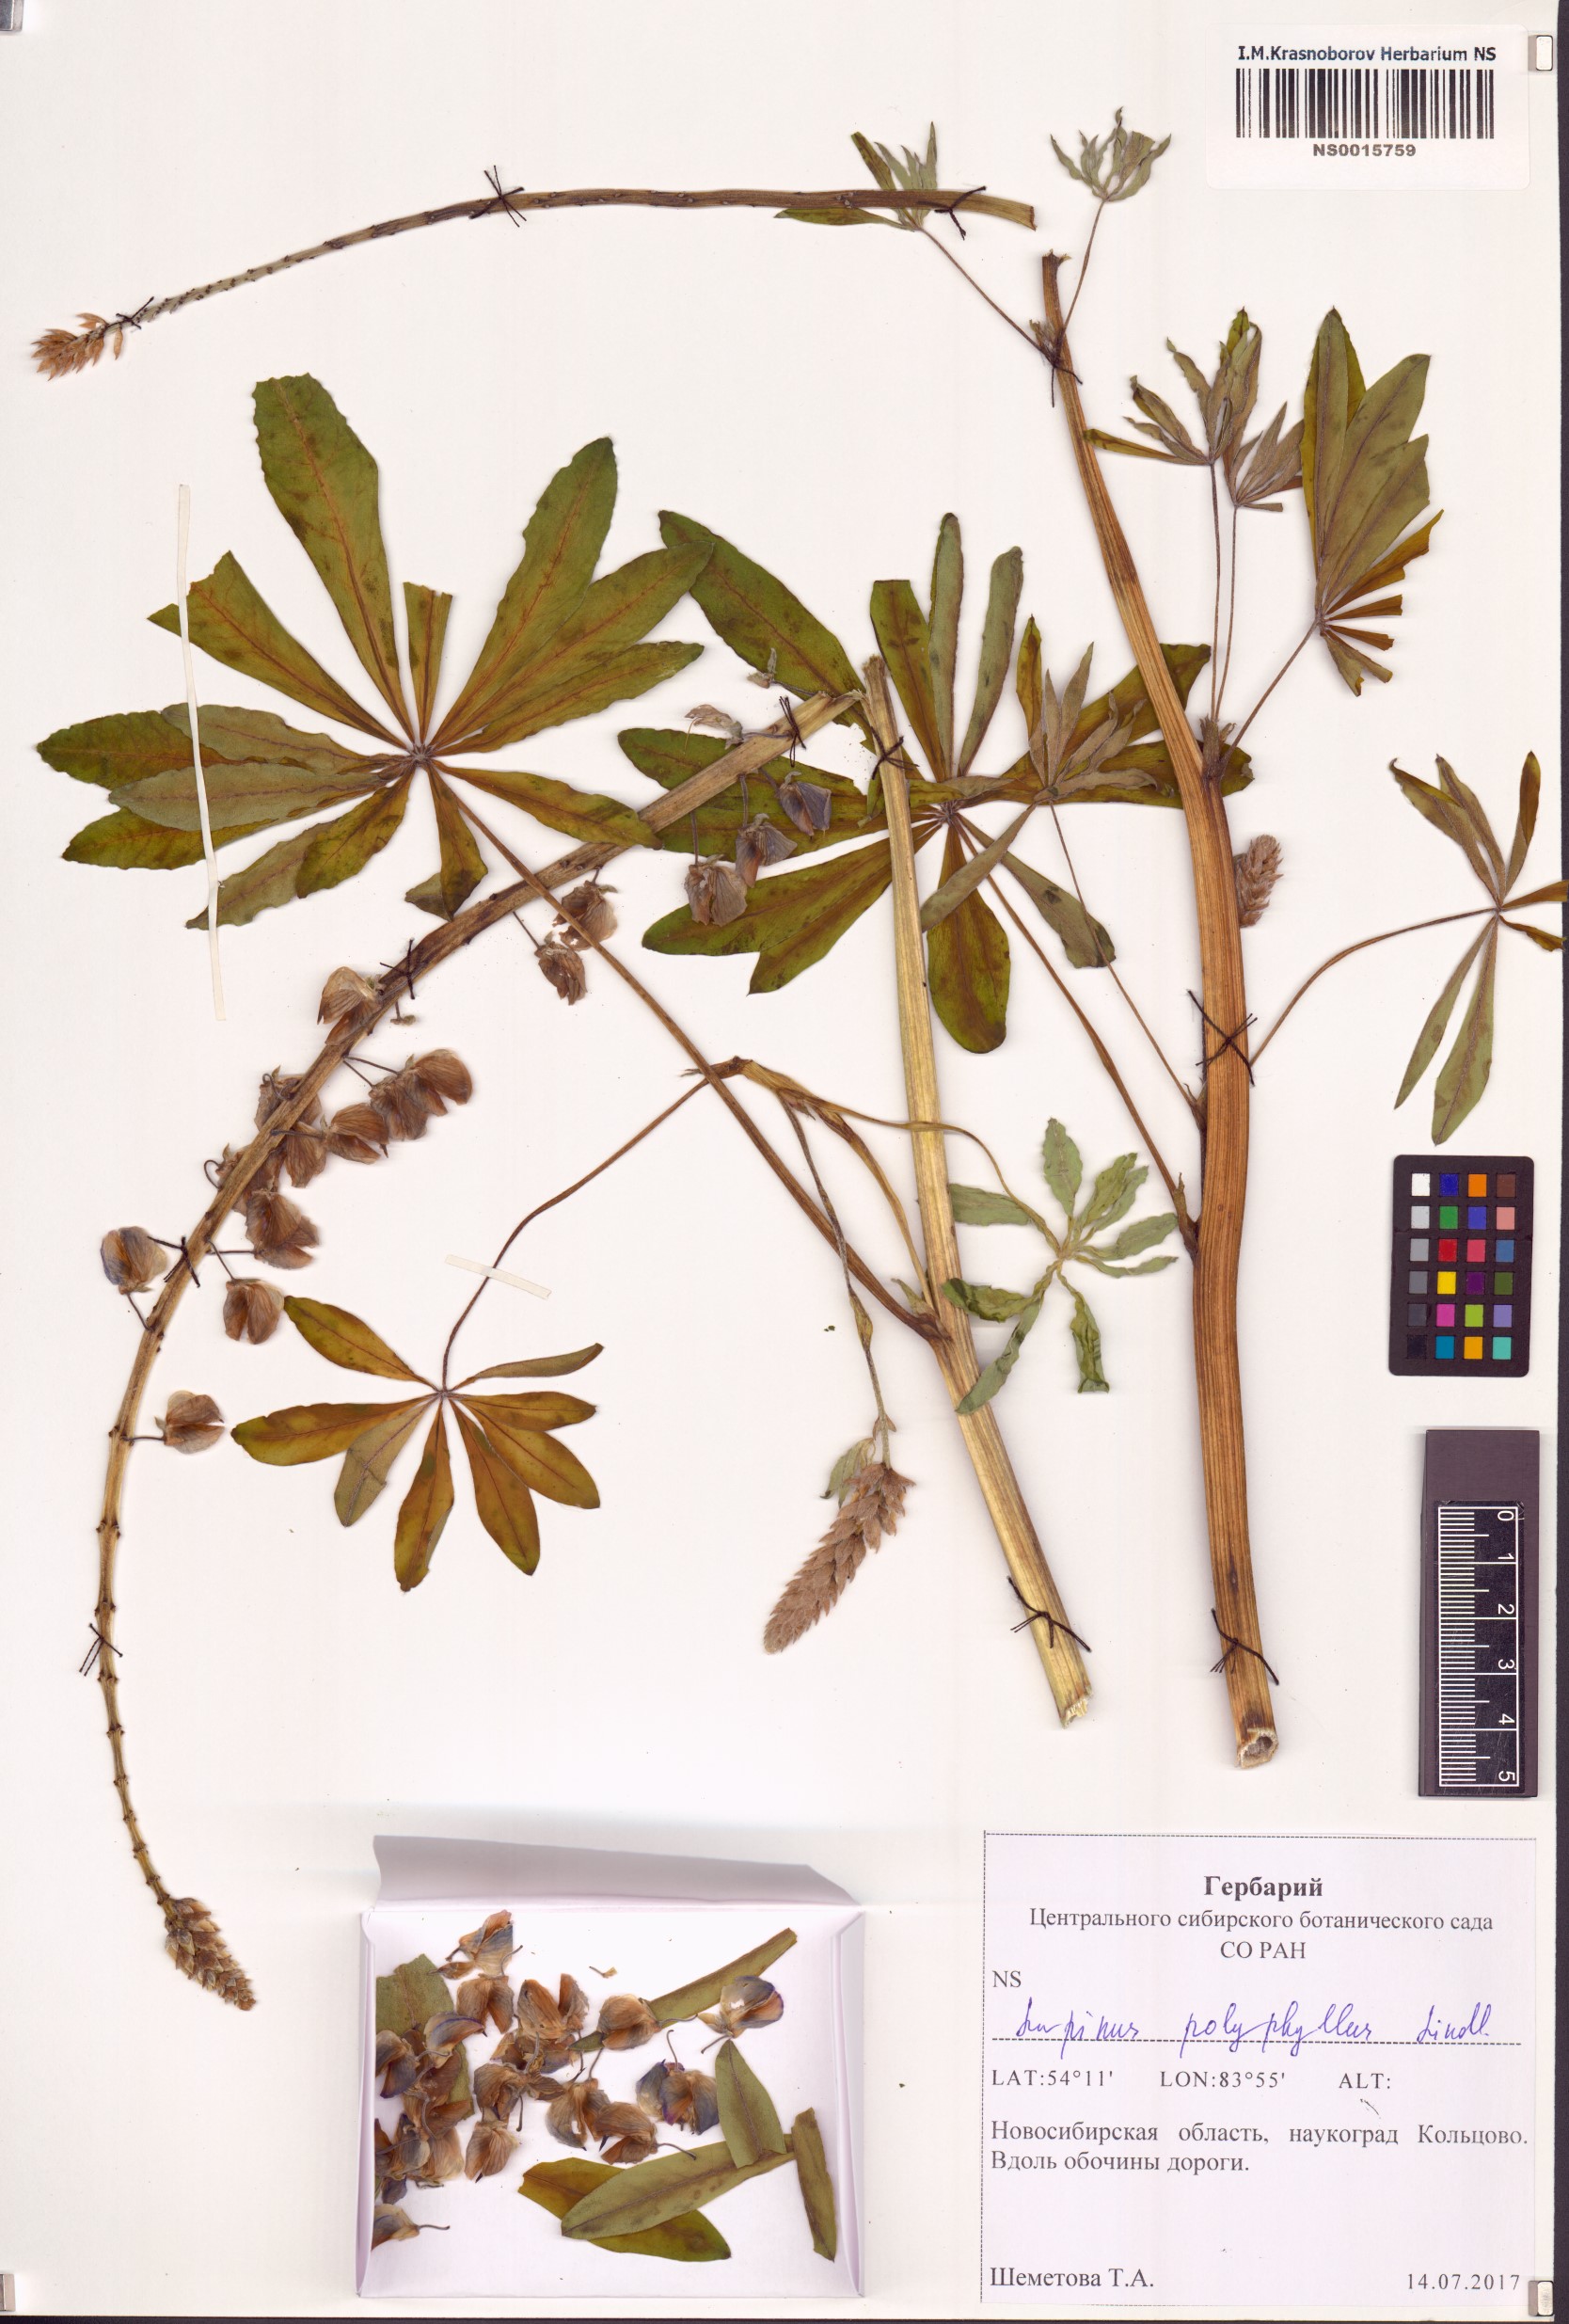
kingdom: Plantae
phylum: Tracheophyta
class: Magnoliopsida
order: Fabales
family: Fabaceae
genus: Lupinus
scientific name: Lupinus polyphyllus
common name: Garden lupin
